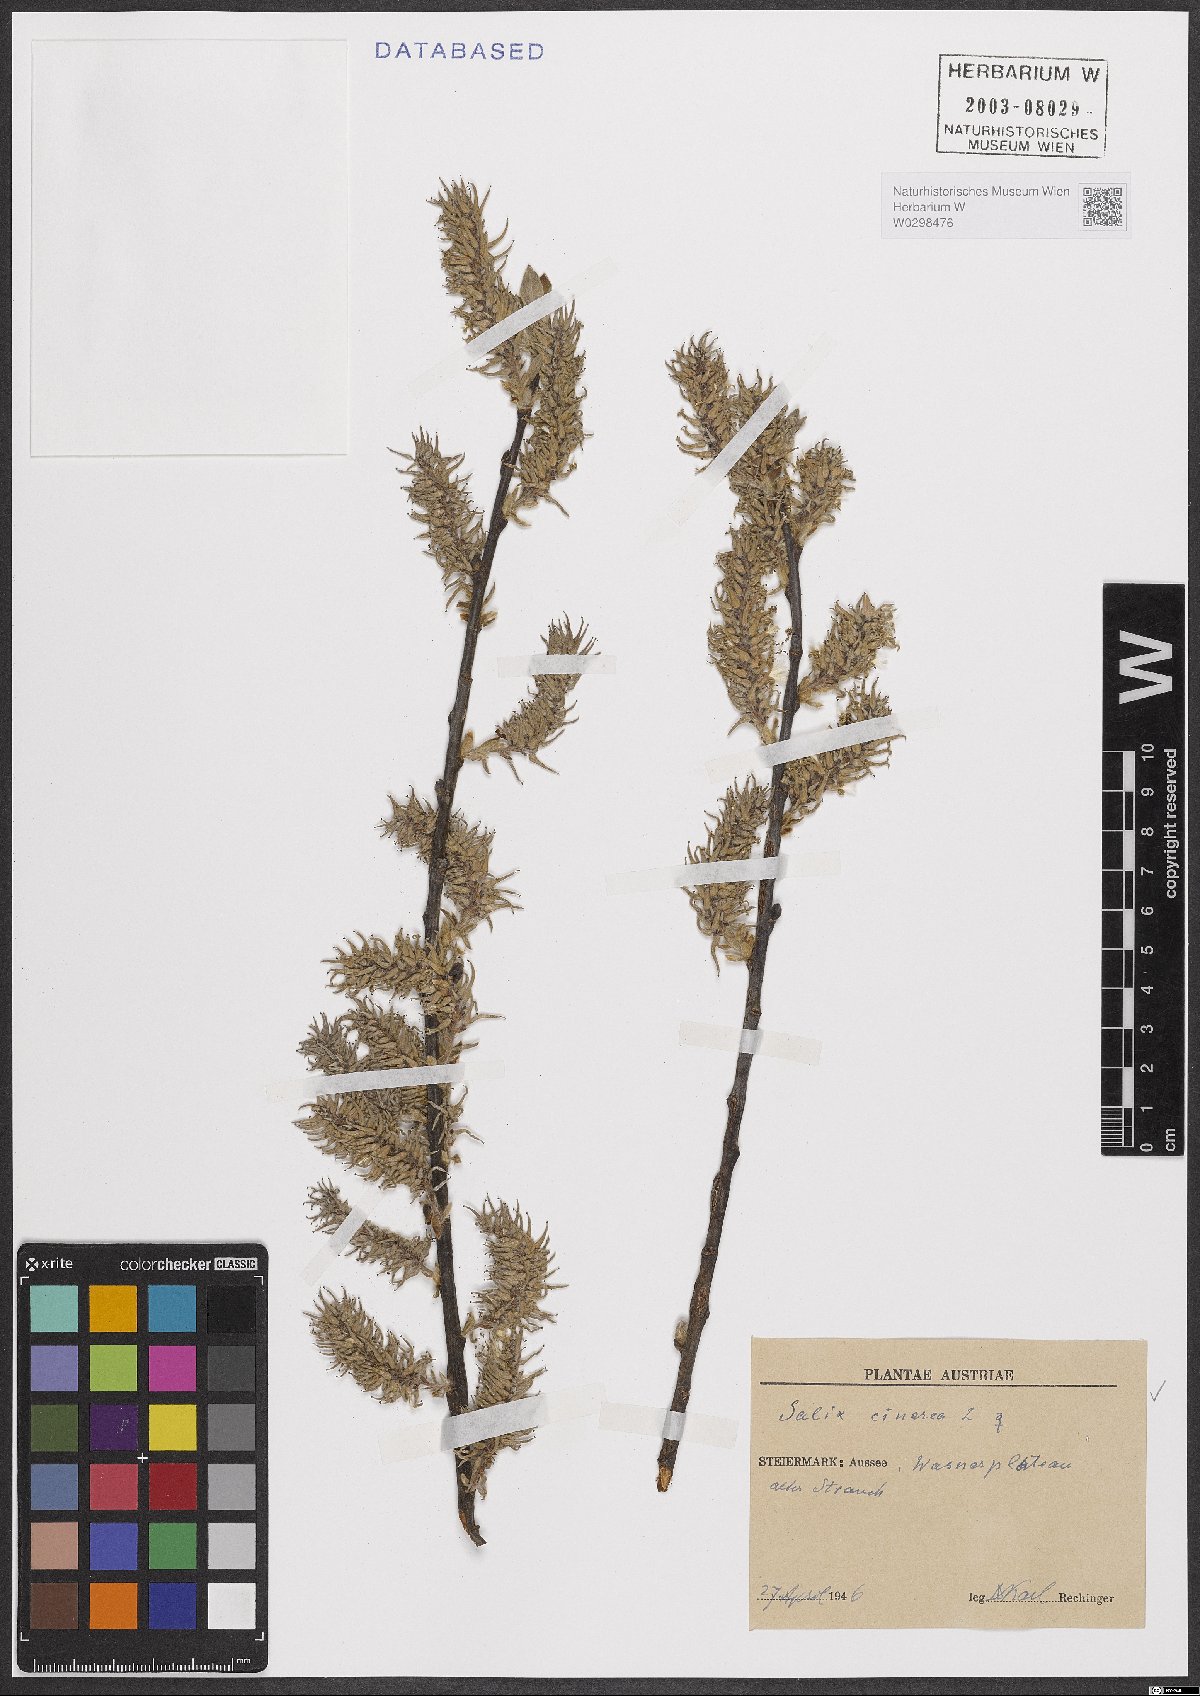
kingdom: Plantae
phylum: Tracheophyta
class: Magnoliopsida
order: Malpighiales
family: Salicaceae
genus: Salix
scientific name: Salix cinerea
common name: Common sallow
